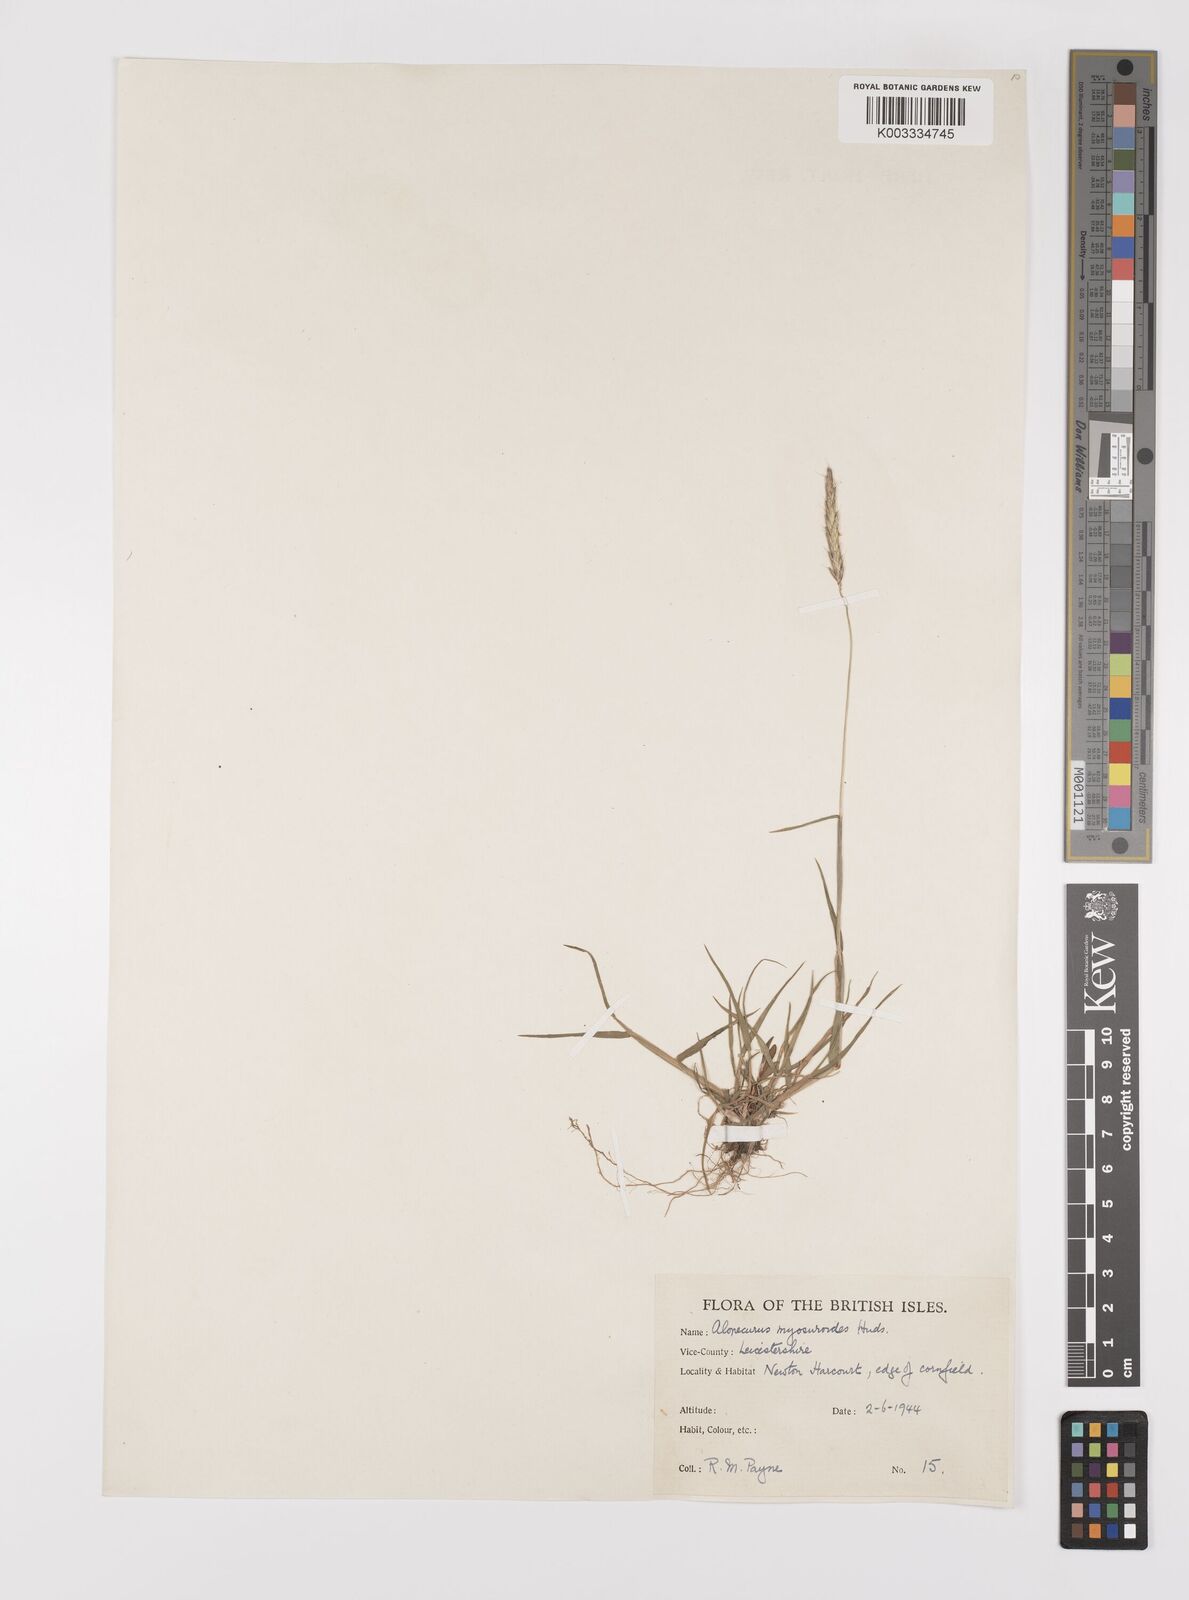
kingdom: Plantae
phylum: Tracheophyta
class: Liliopsida
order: Poales
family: Poaceae
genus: Alopecurus
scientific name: Alopecurus myosuroides
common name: Black-grass
